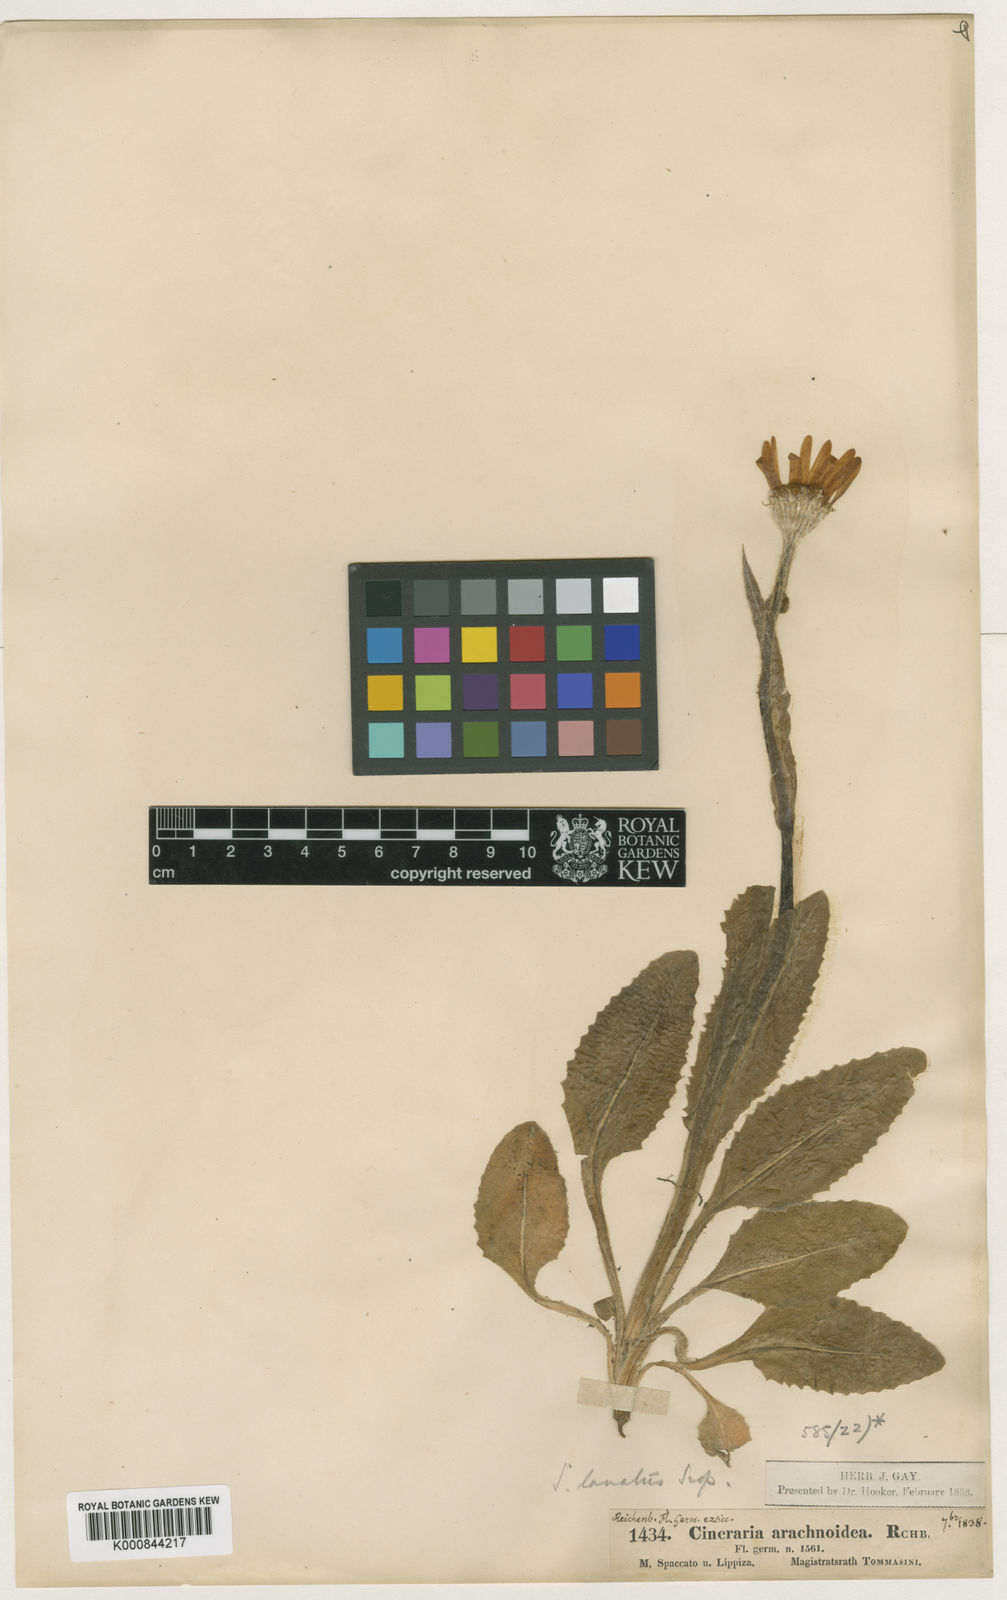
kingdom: Plantae
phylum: Tracheophyta
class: Magnoliopsida
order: Asterales
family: Asteraceae
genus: Monticalia
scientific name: Monticalia ledifolia
